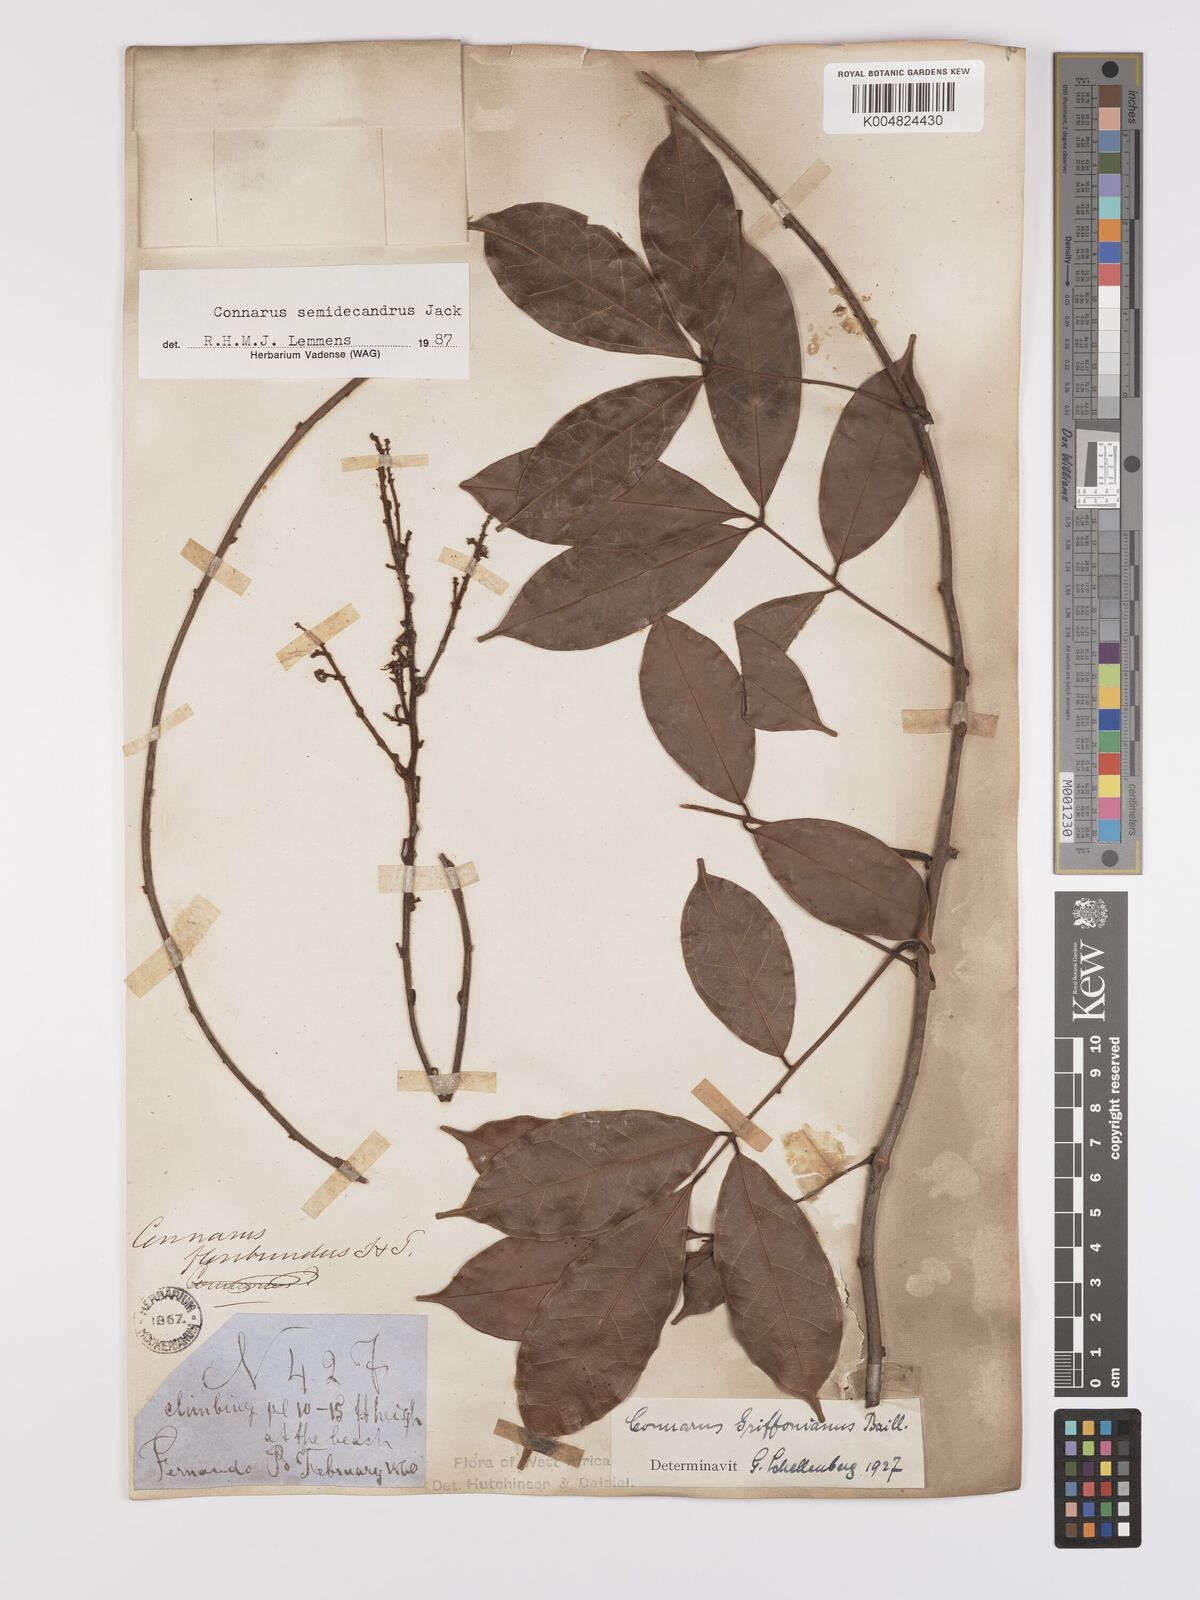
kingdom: Plantae
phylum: Tracheophyta
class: Magnoliopsida
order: Oxalidales
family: Connaraceae
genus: Connarus
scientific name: Connarus griffonianus
